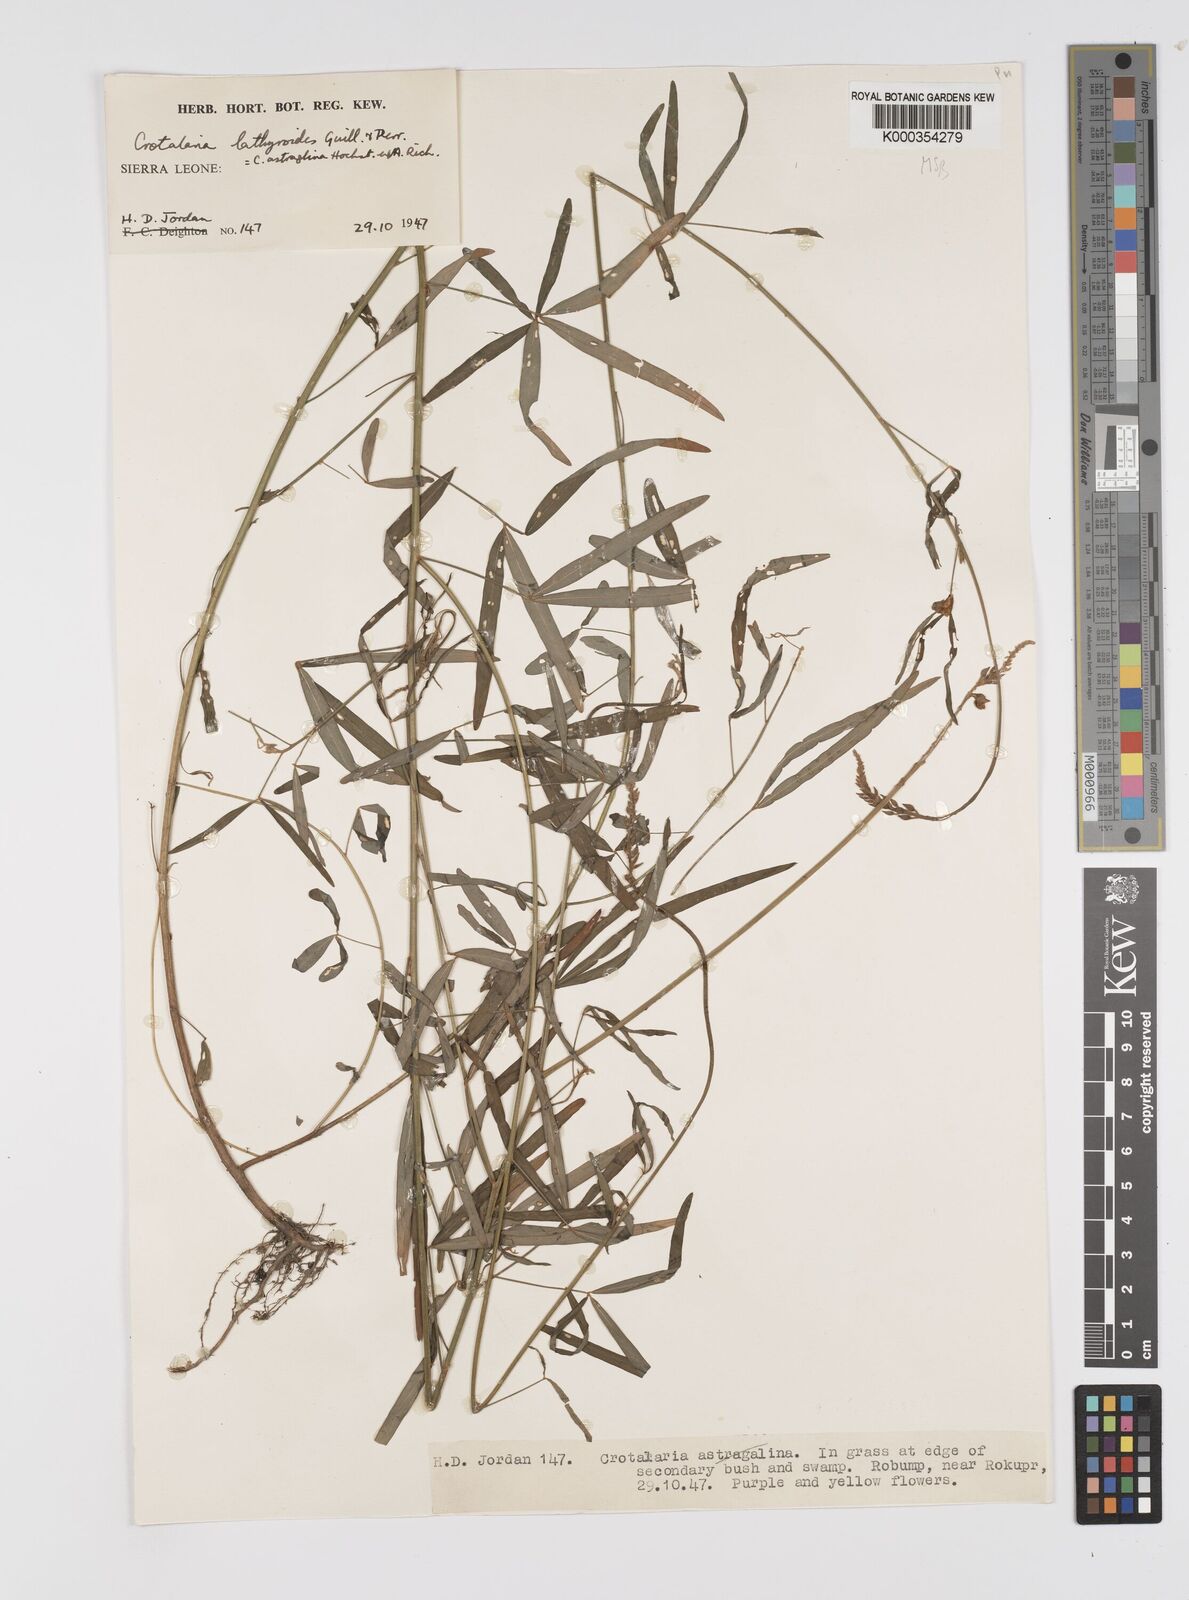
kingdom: Plantae
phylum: Tracheophyta
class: Magnoliopsida
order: Fabales
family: Fabaceae
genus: Crotalaria
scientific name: Crotalaria lathyroides
